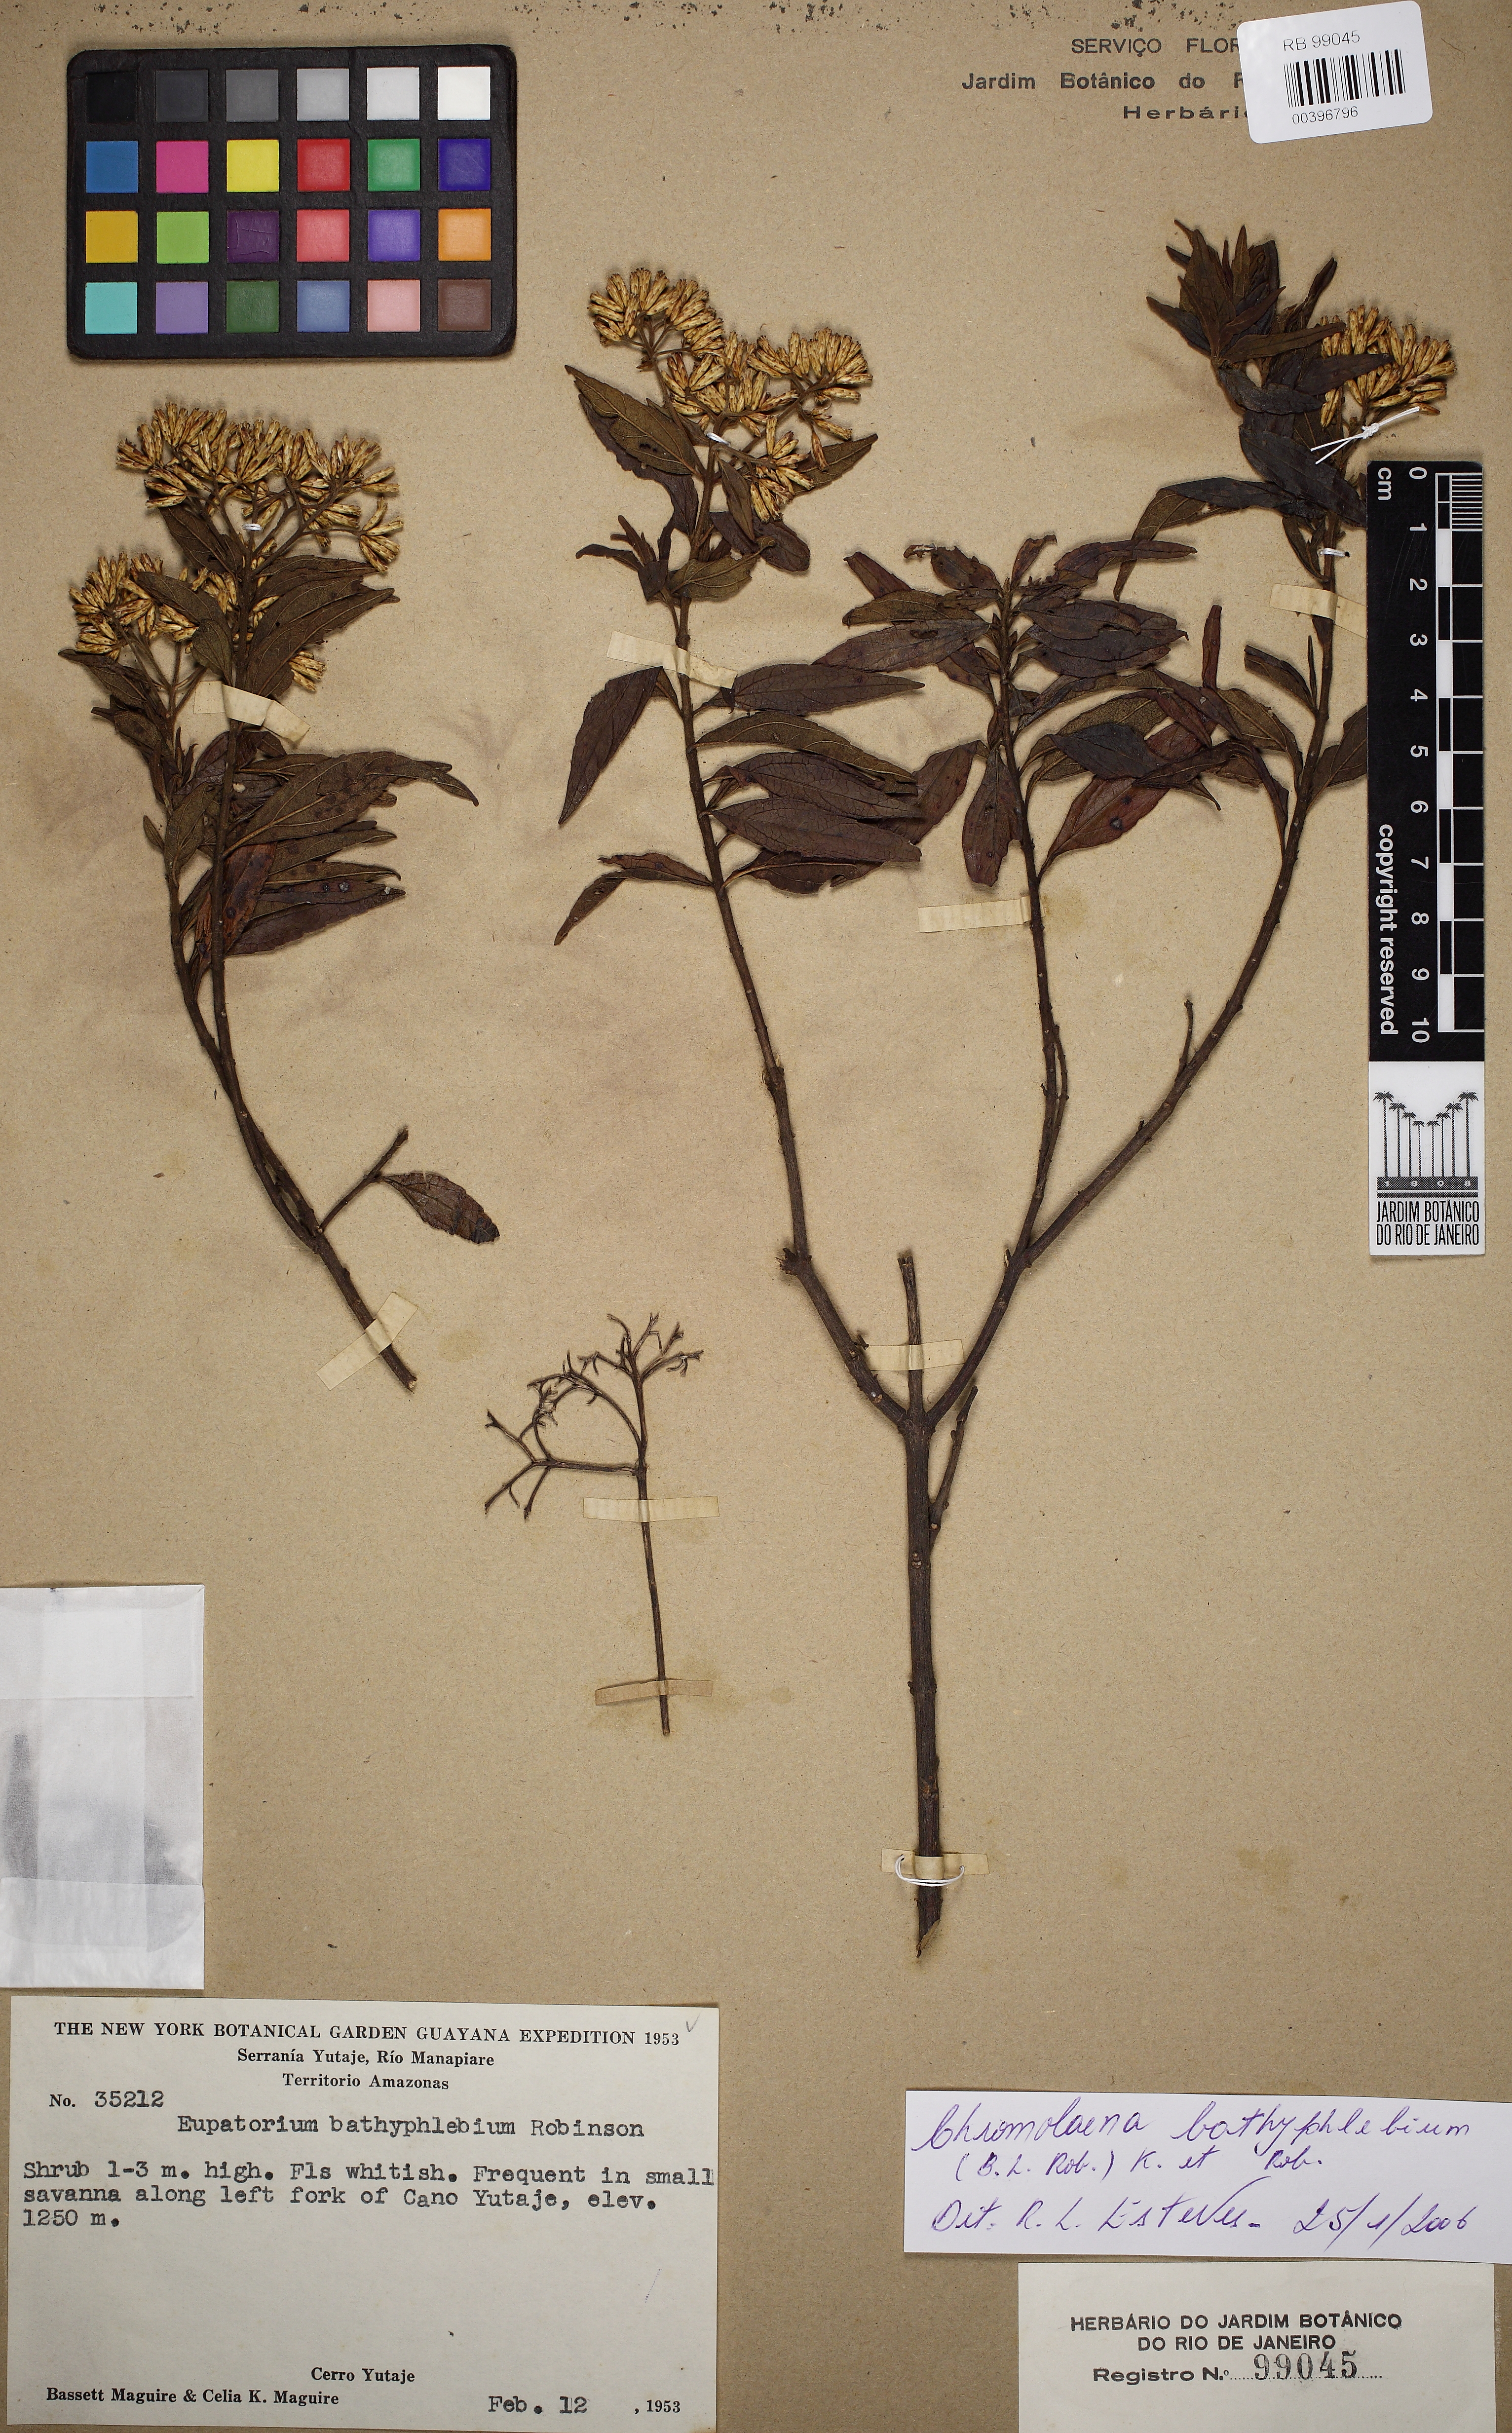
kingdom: Plantae
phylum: Tracheophyta
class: Magnoliopsida
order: Asterales
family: Asteraceae
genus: Chromolaena
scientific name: Chromolaena bathyphlebia
